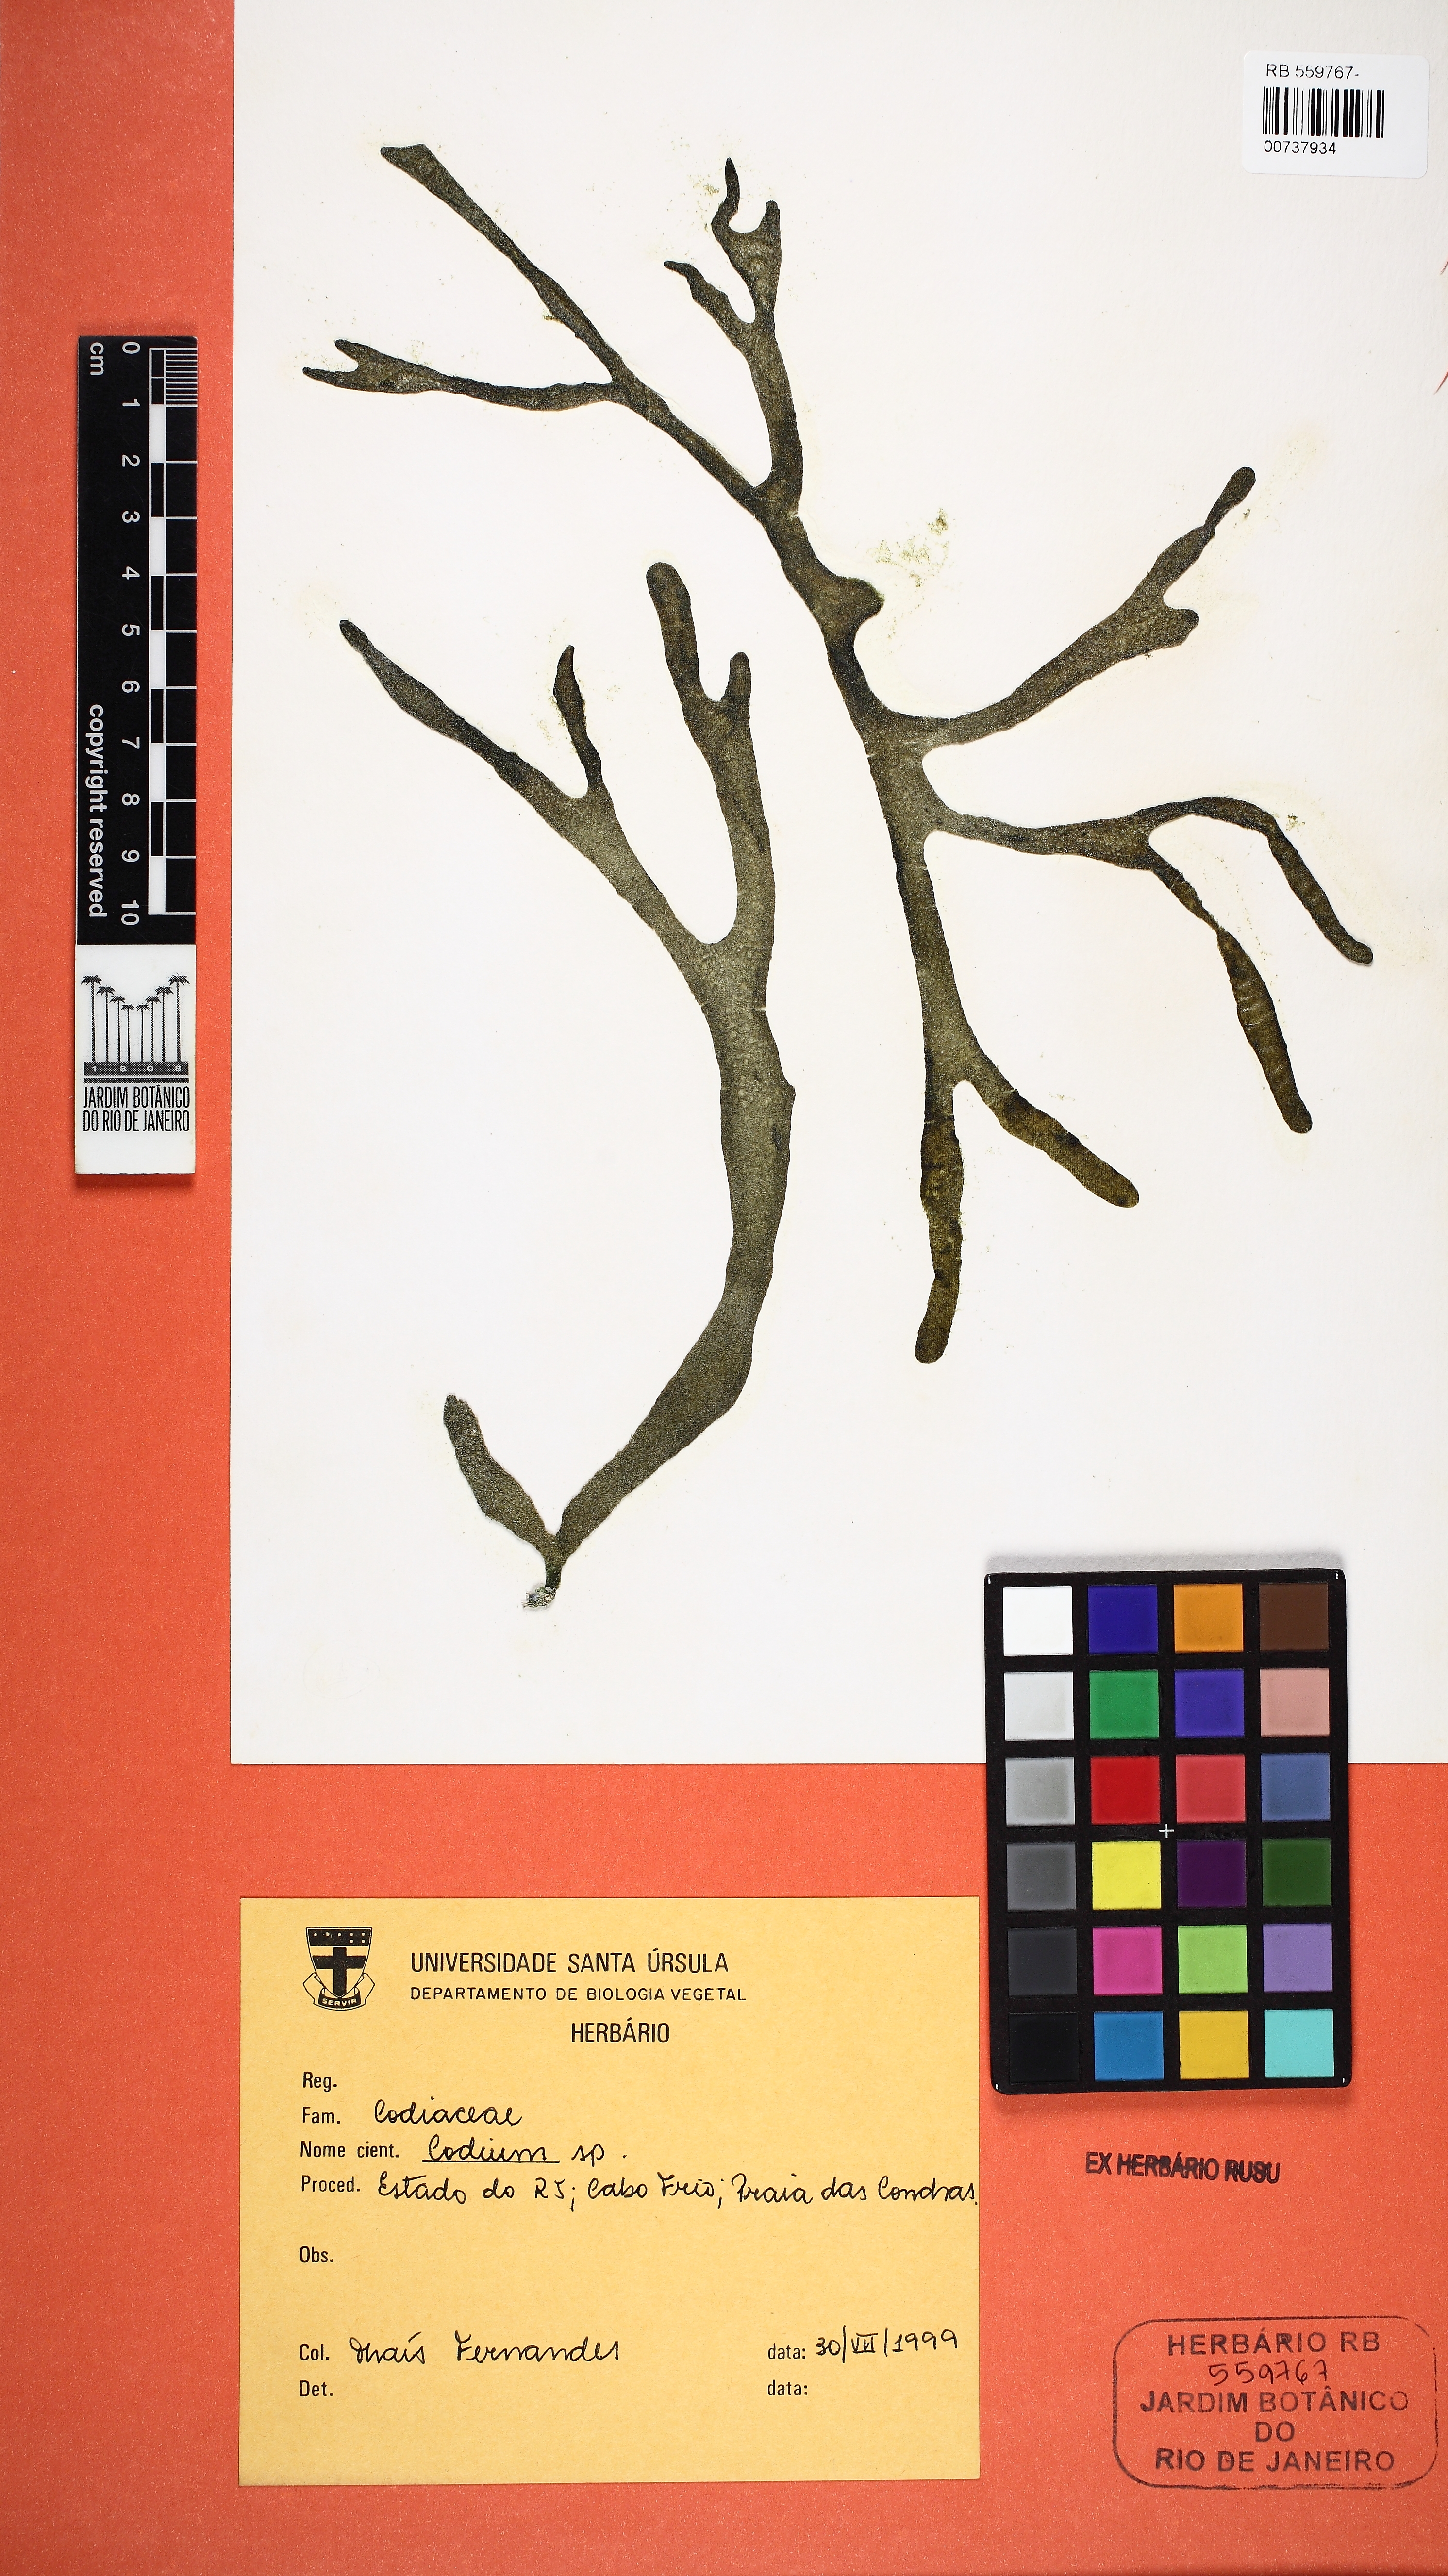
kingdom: Plantae
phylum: Chlorophyta
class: Ulvophyceae
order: Bryopsidales
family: Codiaceae
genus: Codium
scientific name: Codium
